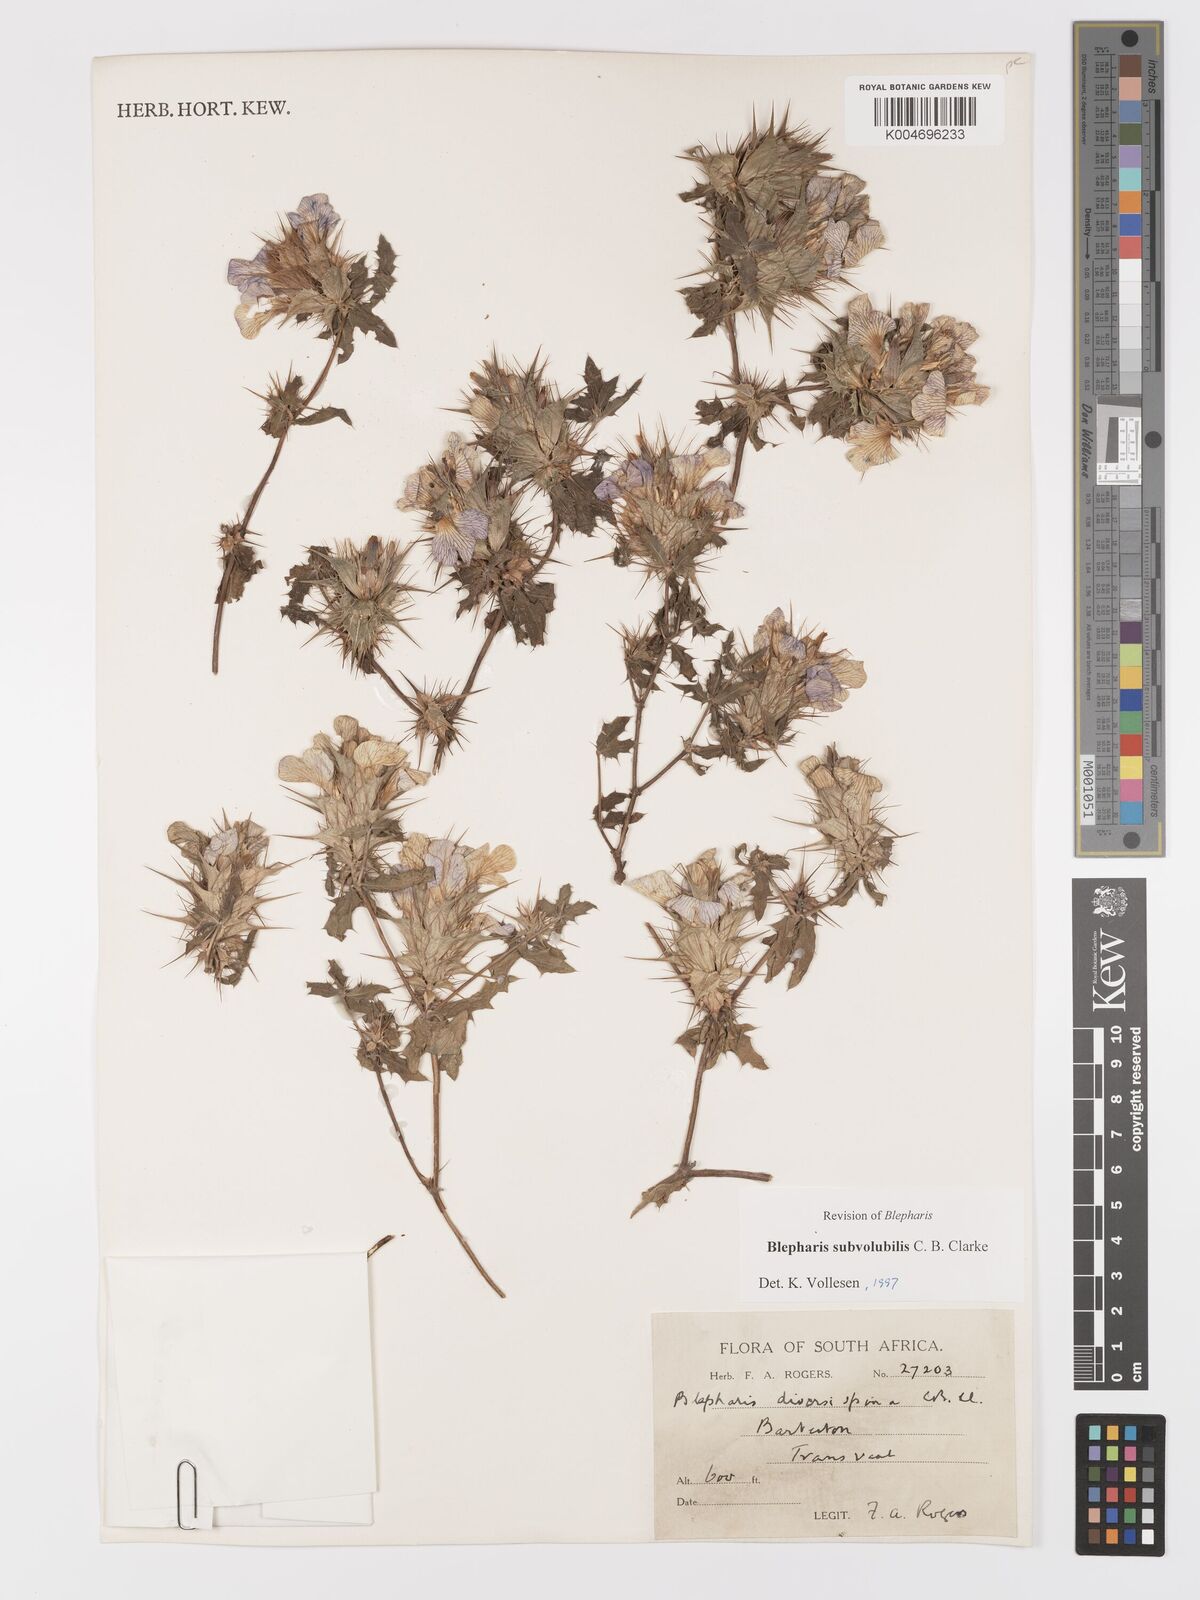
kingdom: Plantae
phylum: Tracheophyta
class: Magnoliopsida
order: Lamiales
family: Acanthaceae
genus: Blepharis
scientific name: Blepharis subvolubilis
